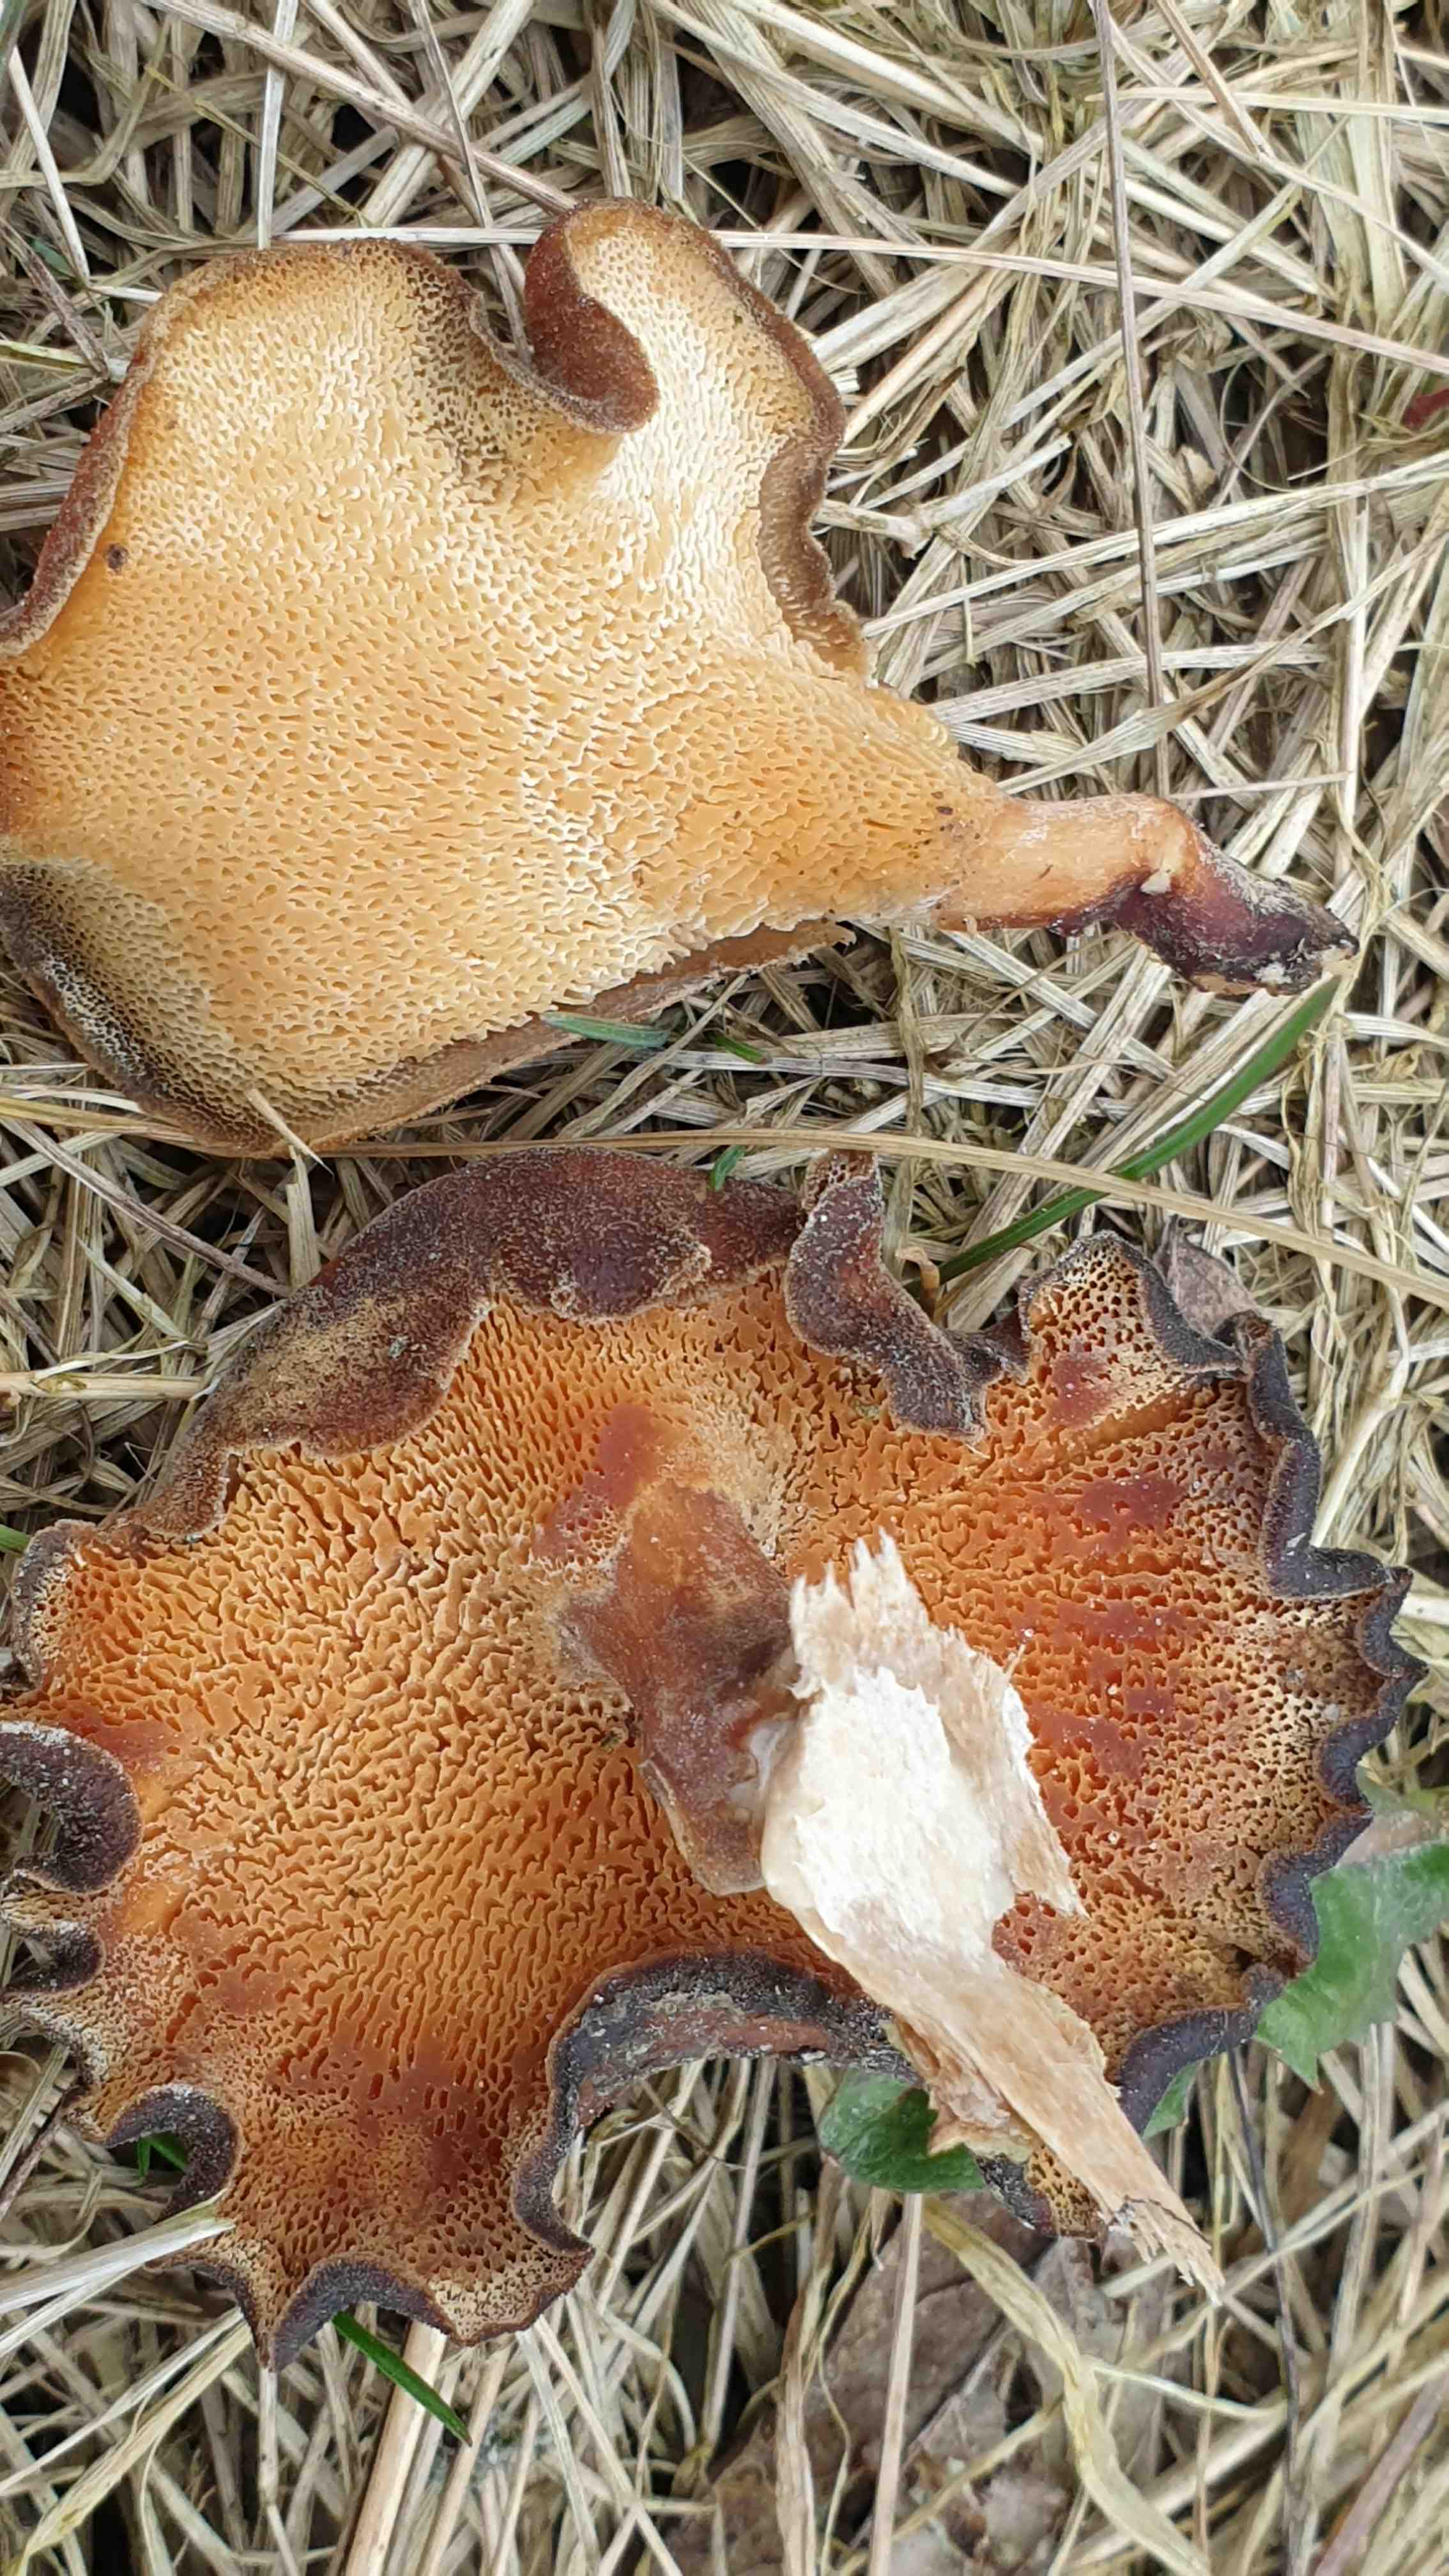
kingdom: Fungi
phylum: Basidiomycota
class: Agaricomycetes
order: Polyporales
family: Polyporaceae
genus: Lentinus
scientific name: Lentinus brumalis
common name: vinter-stilkporesvamp
